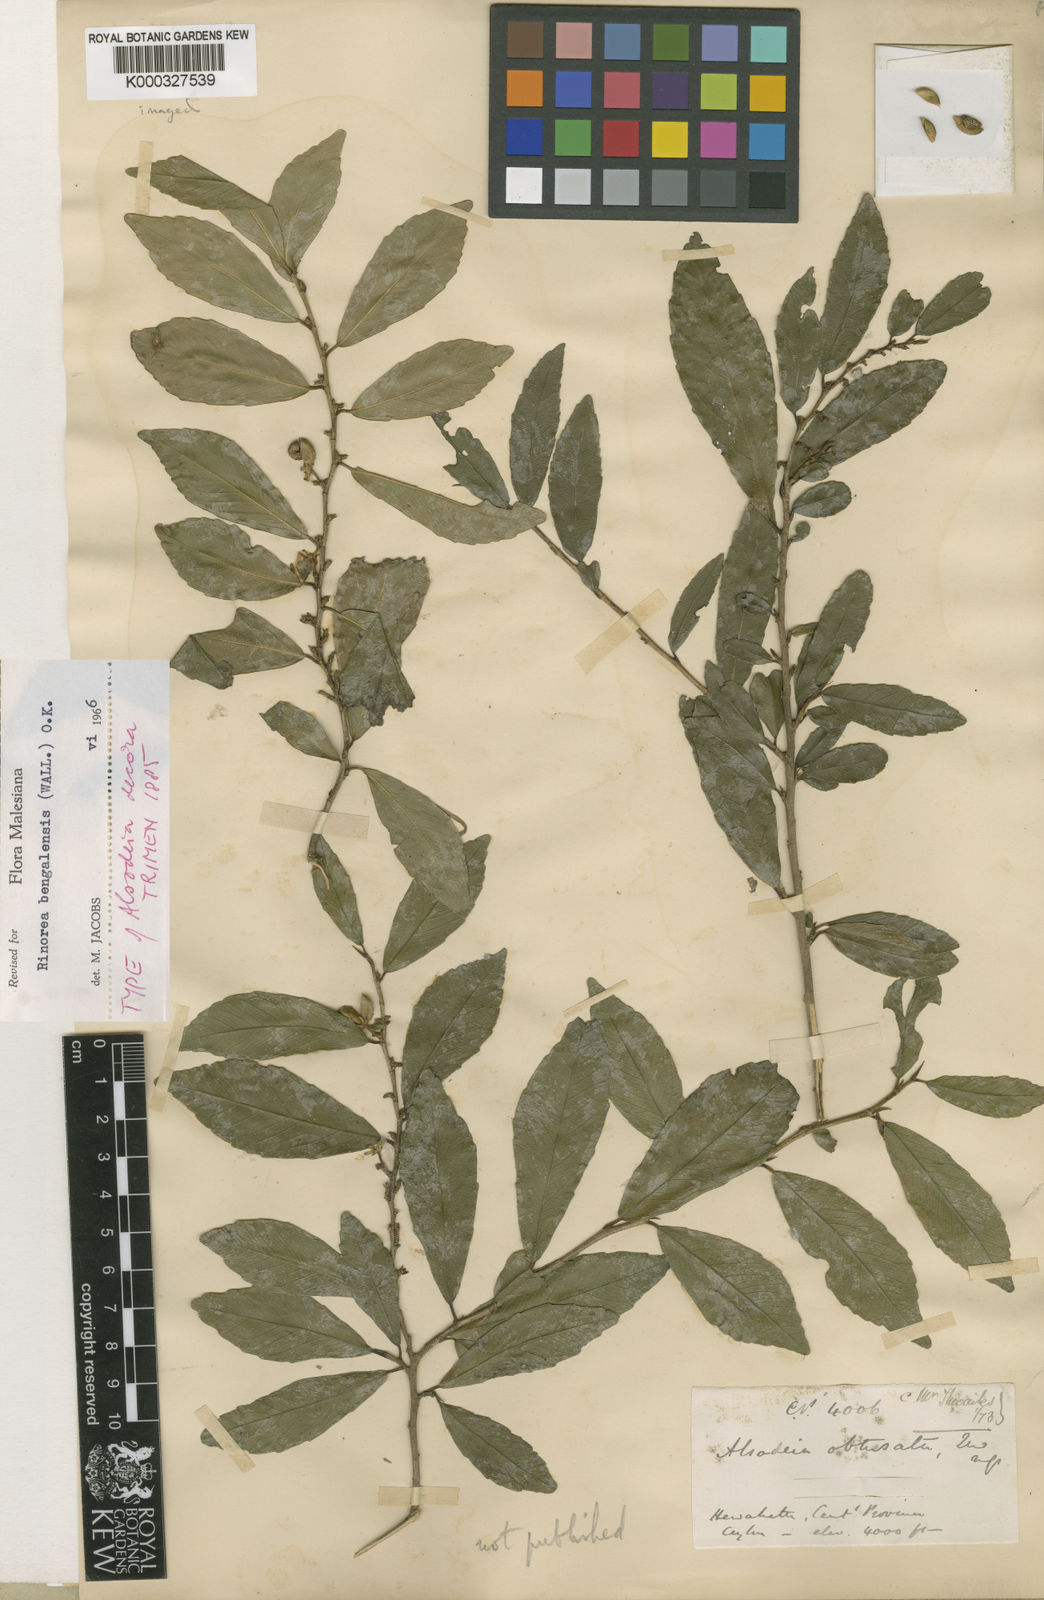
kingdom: Plantae
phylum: Tracheophyta
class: Magnoliopsida
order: Malpighiales
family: Violaceae
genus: Rinorea
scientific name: Rinorea bengalensis
